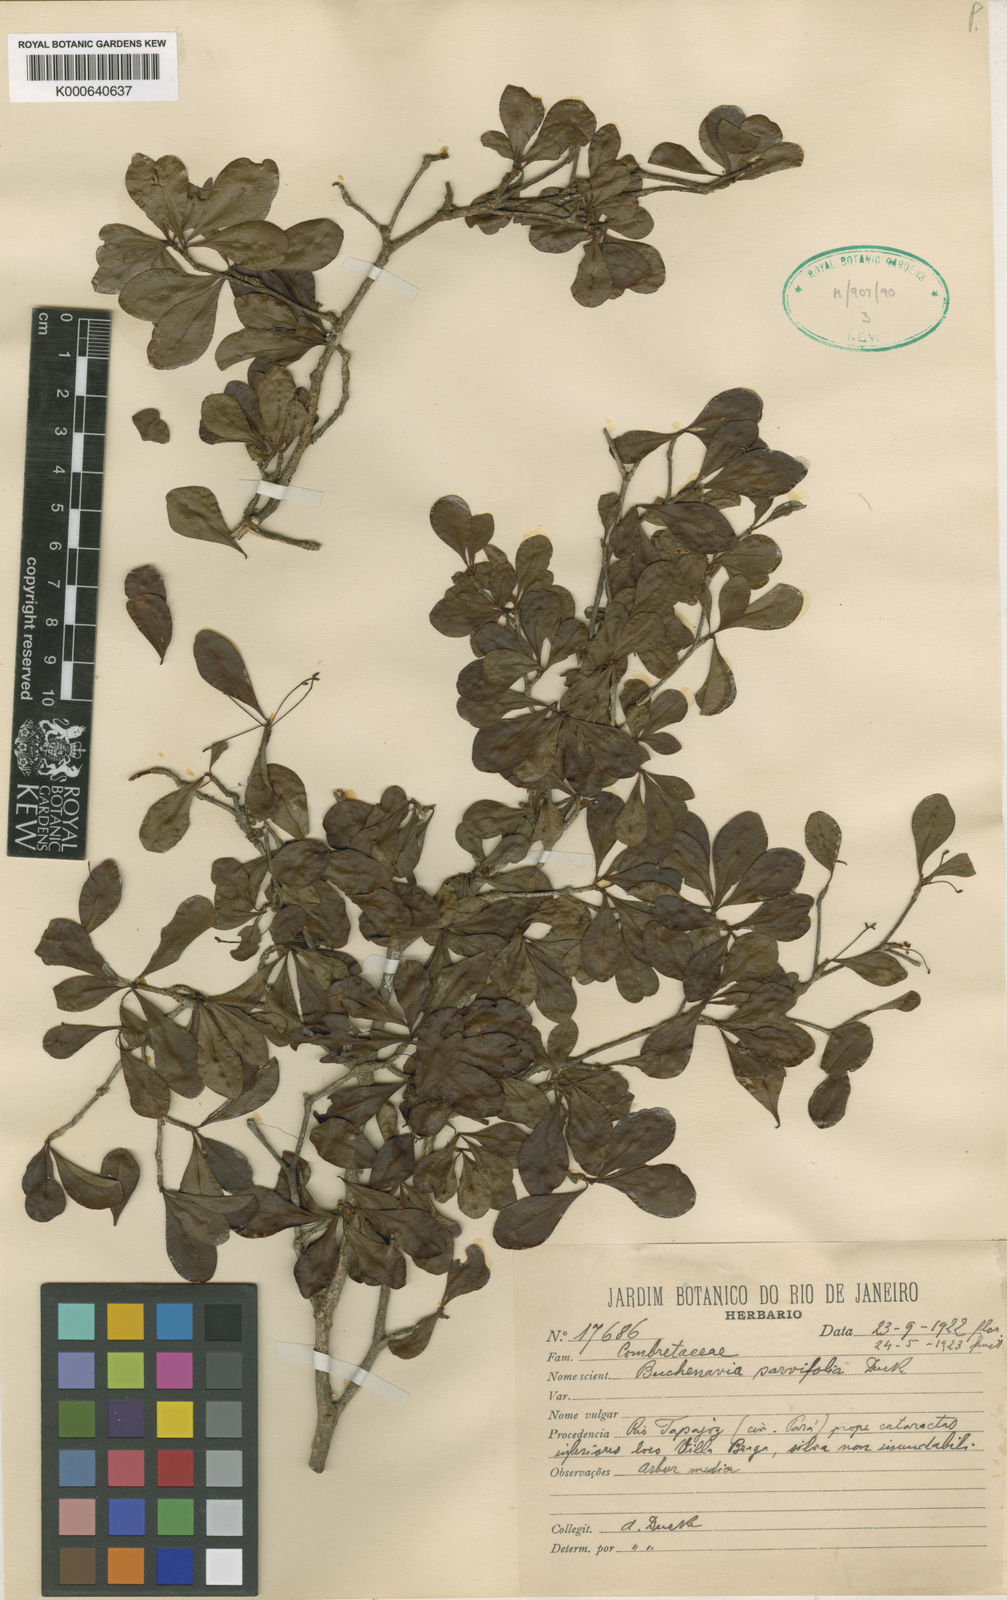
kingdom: Plantae
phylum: Tracheophyta
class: Magnoliopsida
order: Myrtales
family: Combretaceae
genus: Terminalia
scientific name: Terminalia parvifolia
